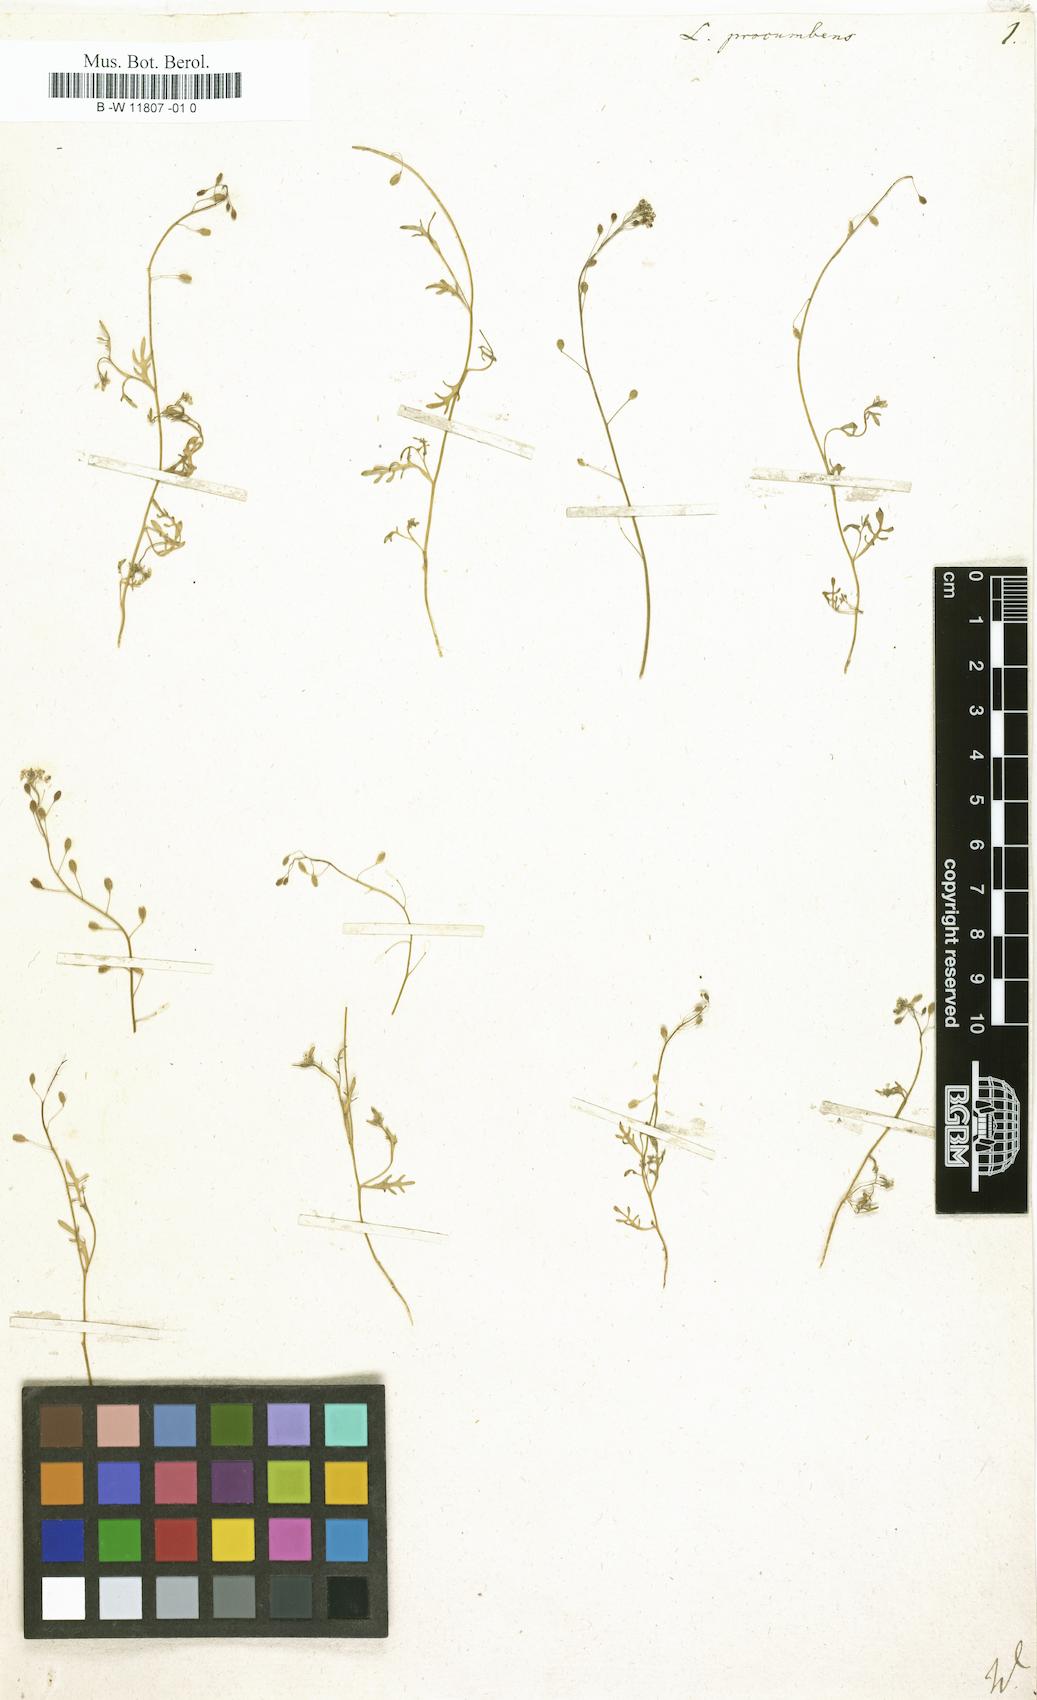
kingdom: Plantae
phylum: Tracheophyta
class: Magnoliopsida
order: Brassicales
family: Brassicaceae
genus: Hornungia
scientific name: Hornungia procumbens
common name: Oval purse
